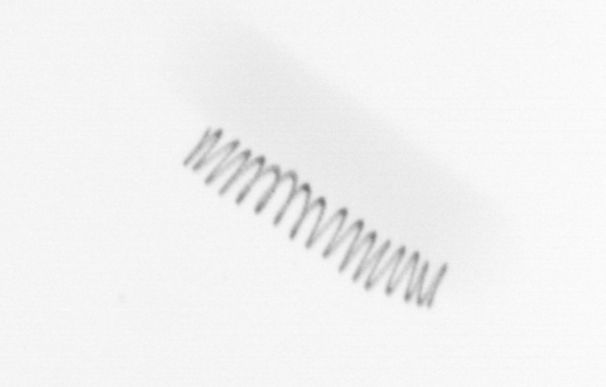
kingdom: Chromista
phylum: Ochrophyta
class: Bacillariophyceae
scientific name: Bacillariophyceae
